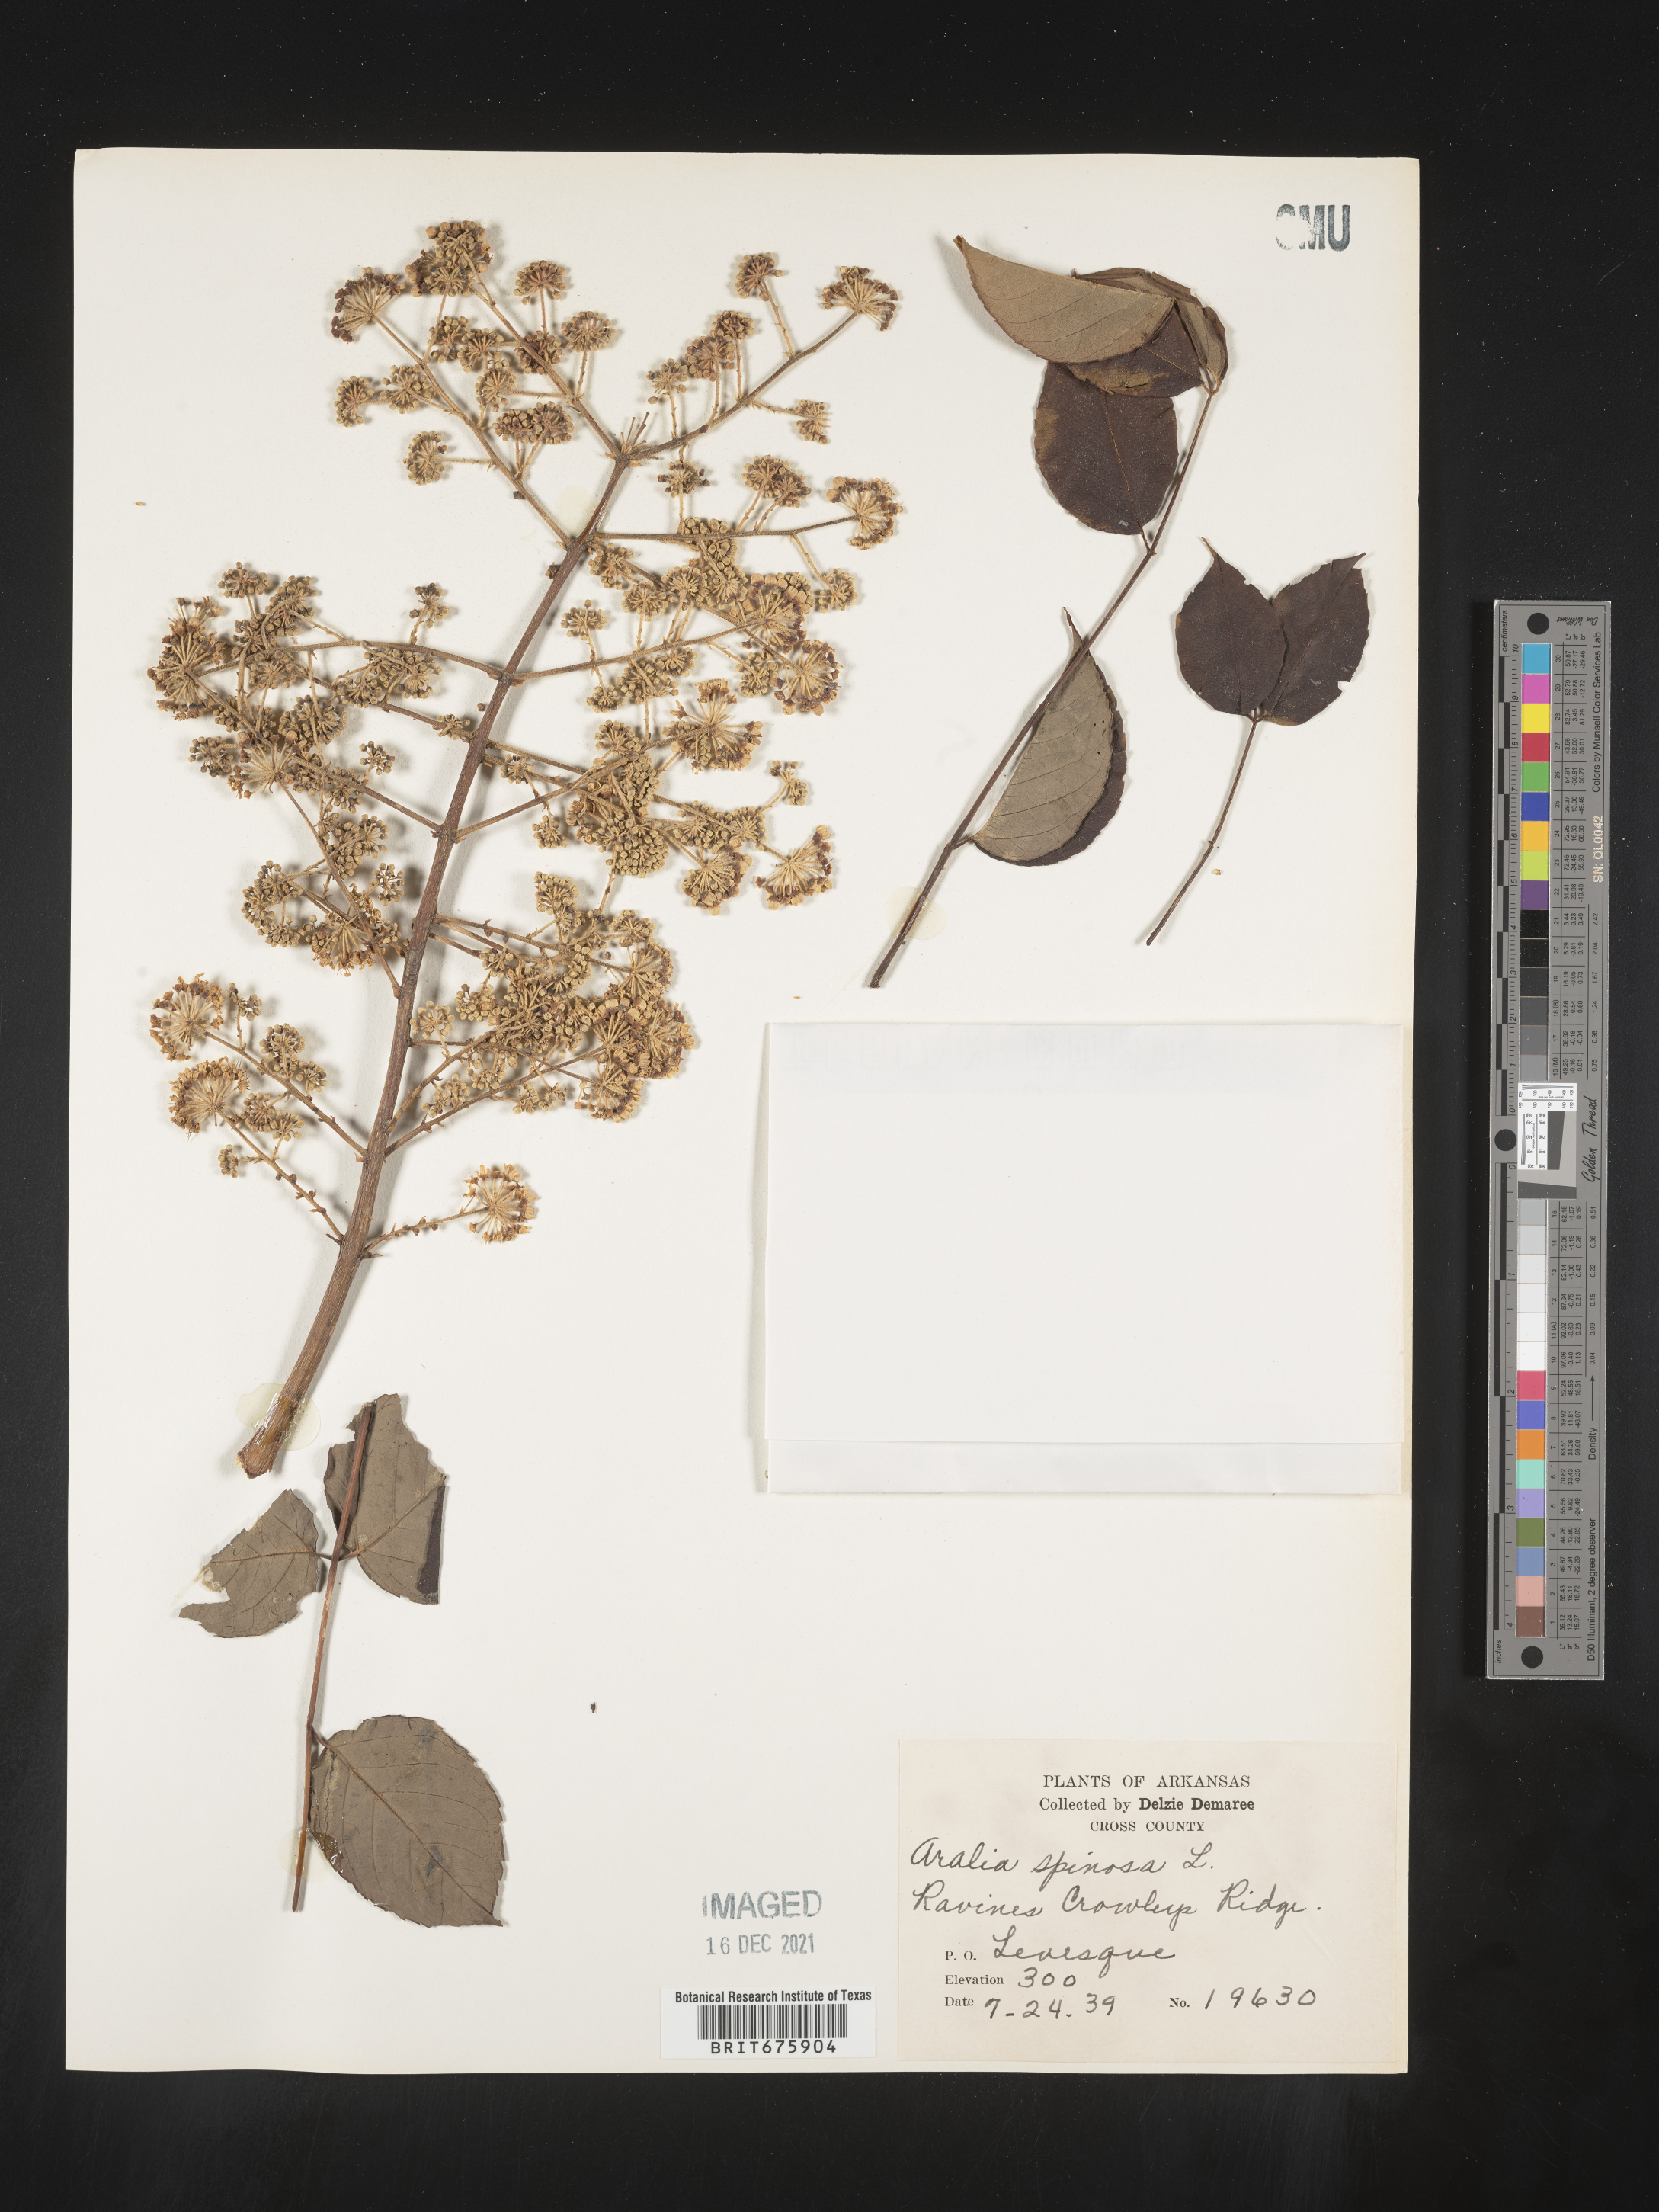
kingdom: Plantae
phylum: Tracheophyta
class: Magnoliopsida
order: Apiales
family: Araliaceae
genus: Aralia
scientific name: Aralia spinosa
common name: Hercules'-club
